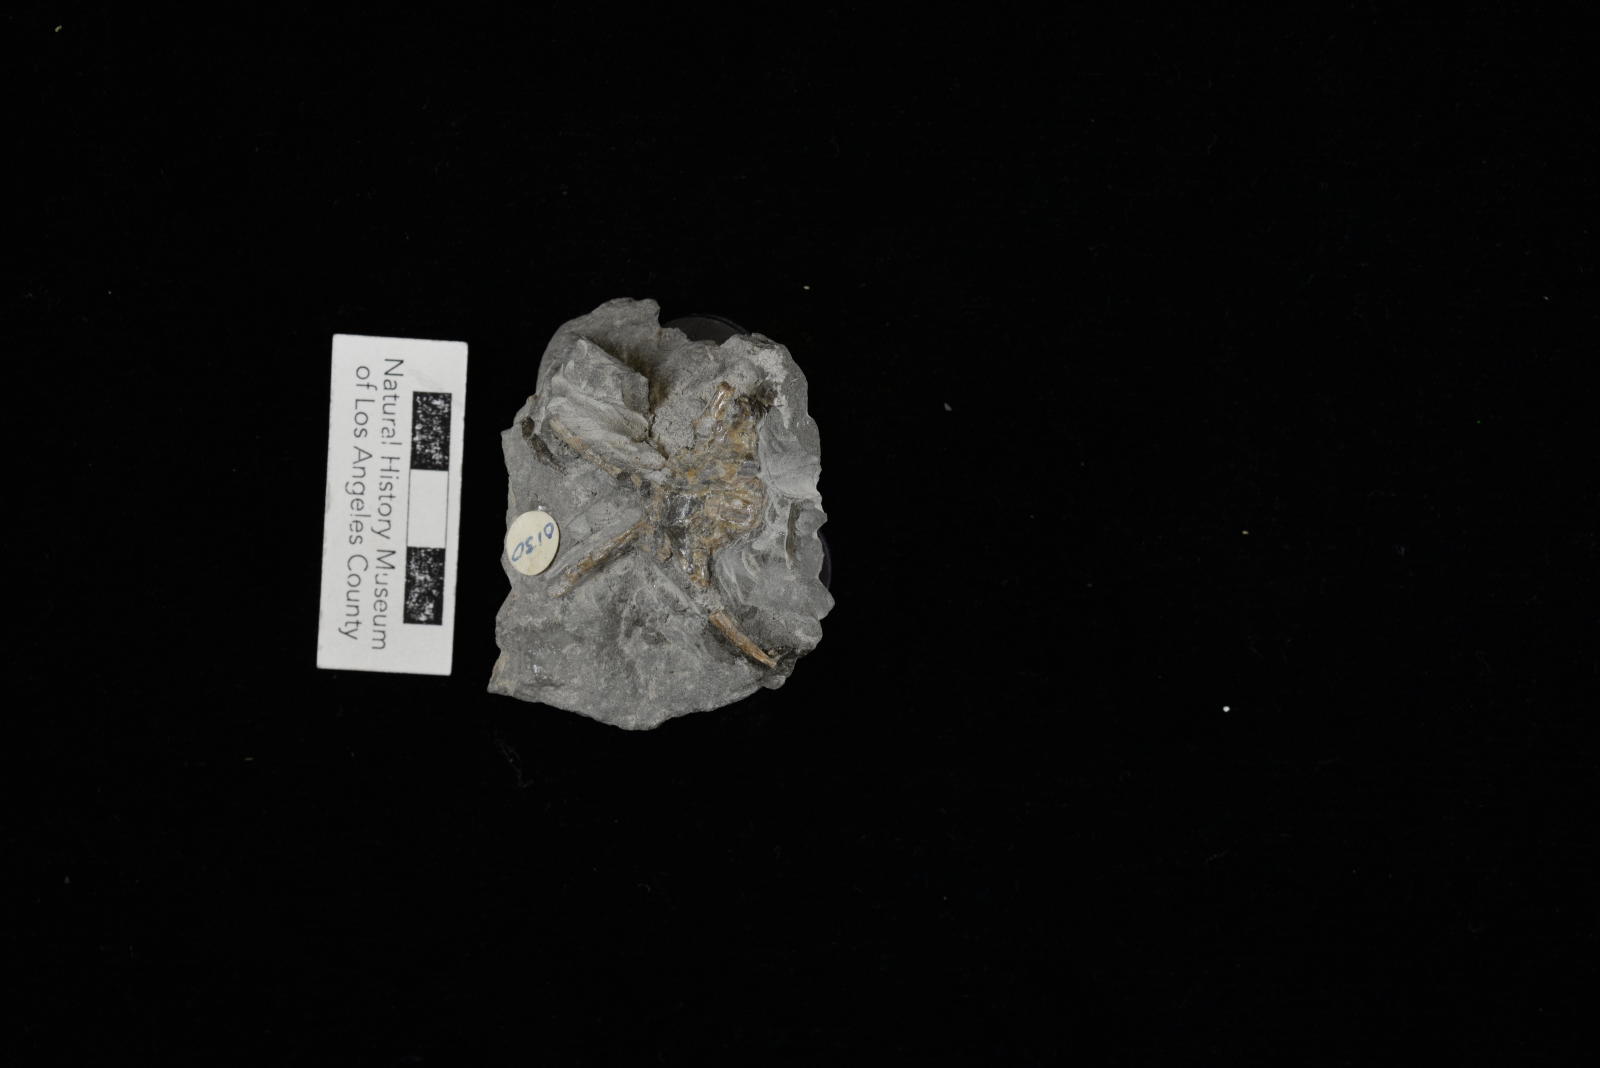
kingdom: Animalia
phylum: Mollusca
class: Gastropoda
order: Littorinimorpha
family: Aporrhaidae
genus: Tessarolax
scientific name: Tessarolax alaskana
